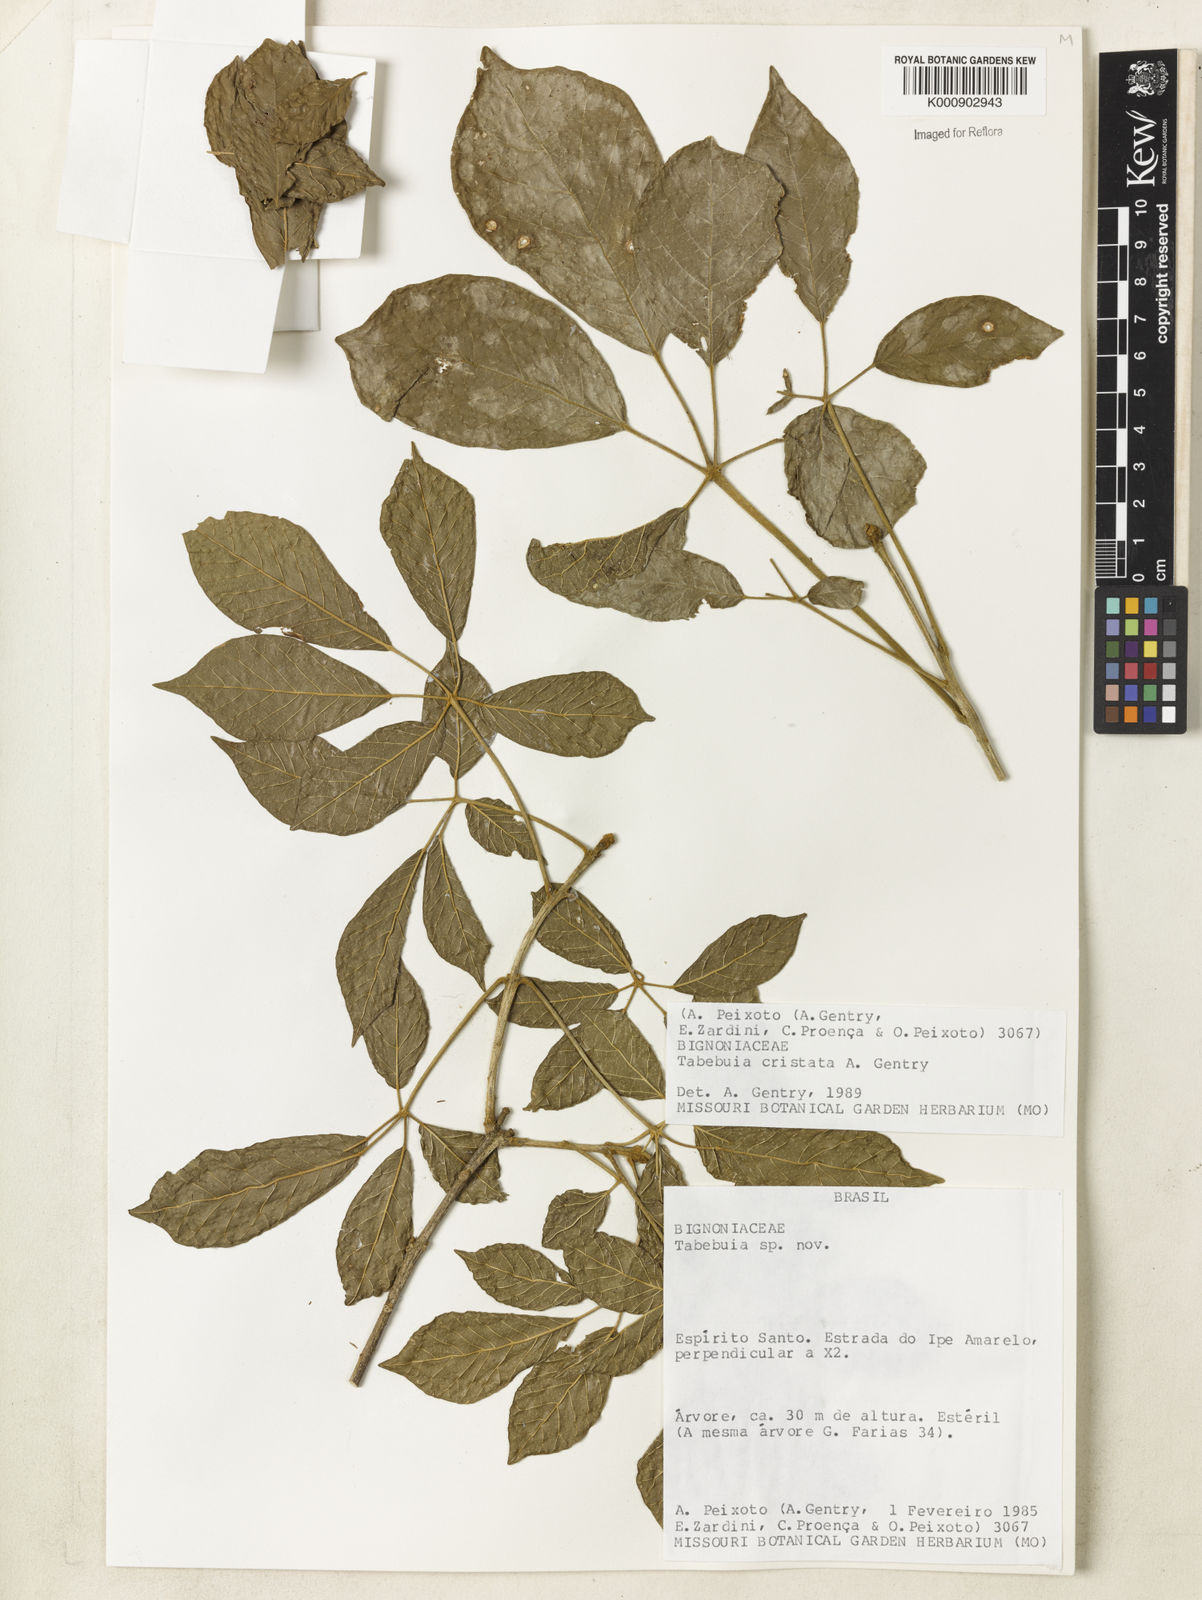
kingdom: Plantae
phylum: Tracheophyta
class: Magnoliopsida
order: Lamiales
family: Bignoniaceae
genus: Handroanthus
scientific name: Handroanthus cristatus
